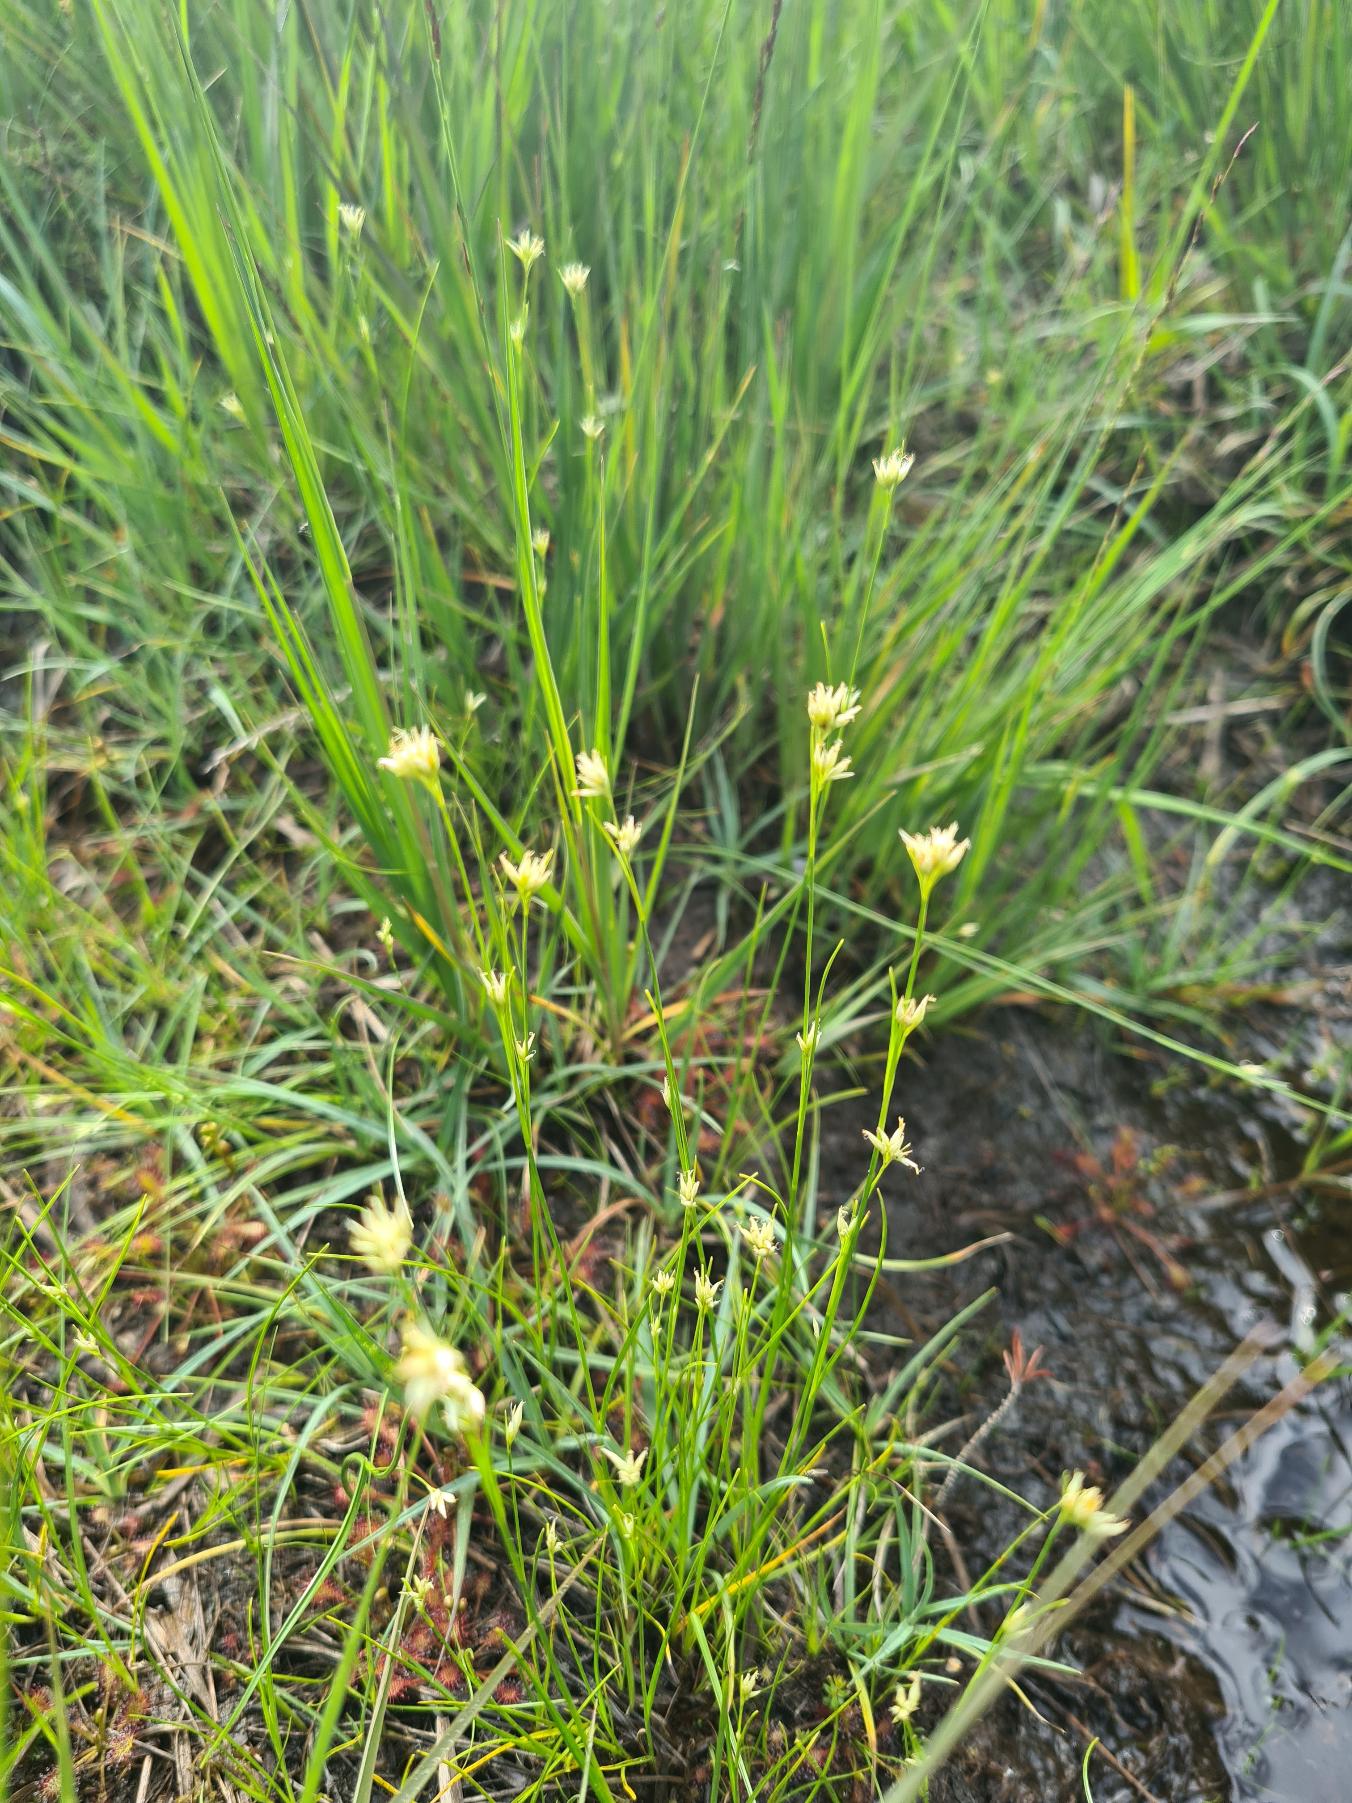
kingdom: Plantae
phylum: Tracheophyta
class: Liliopsida
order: Poales
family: Cyperaceae
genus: Rhynchospora
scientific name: Rhynchospora alba
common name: Hvid næbfrø
